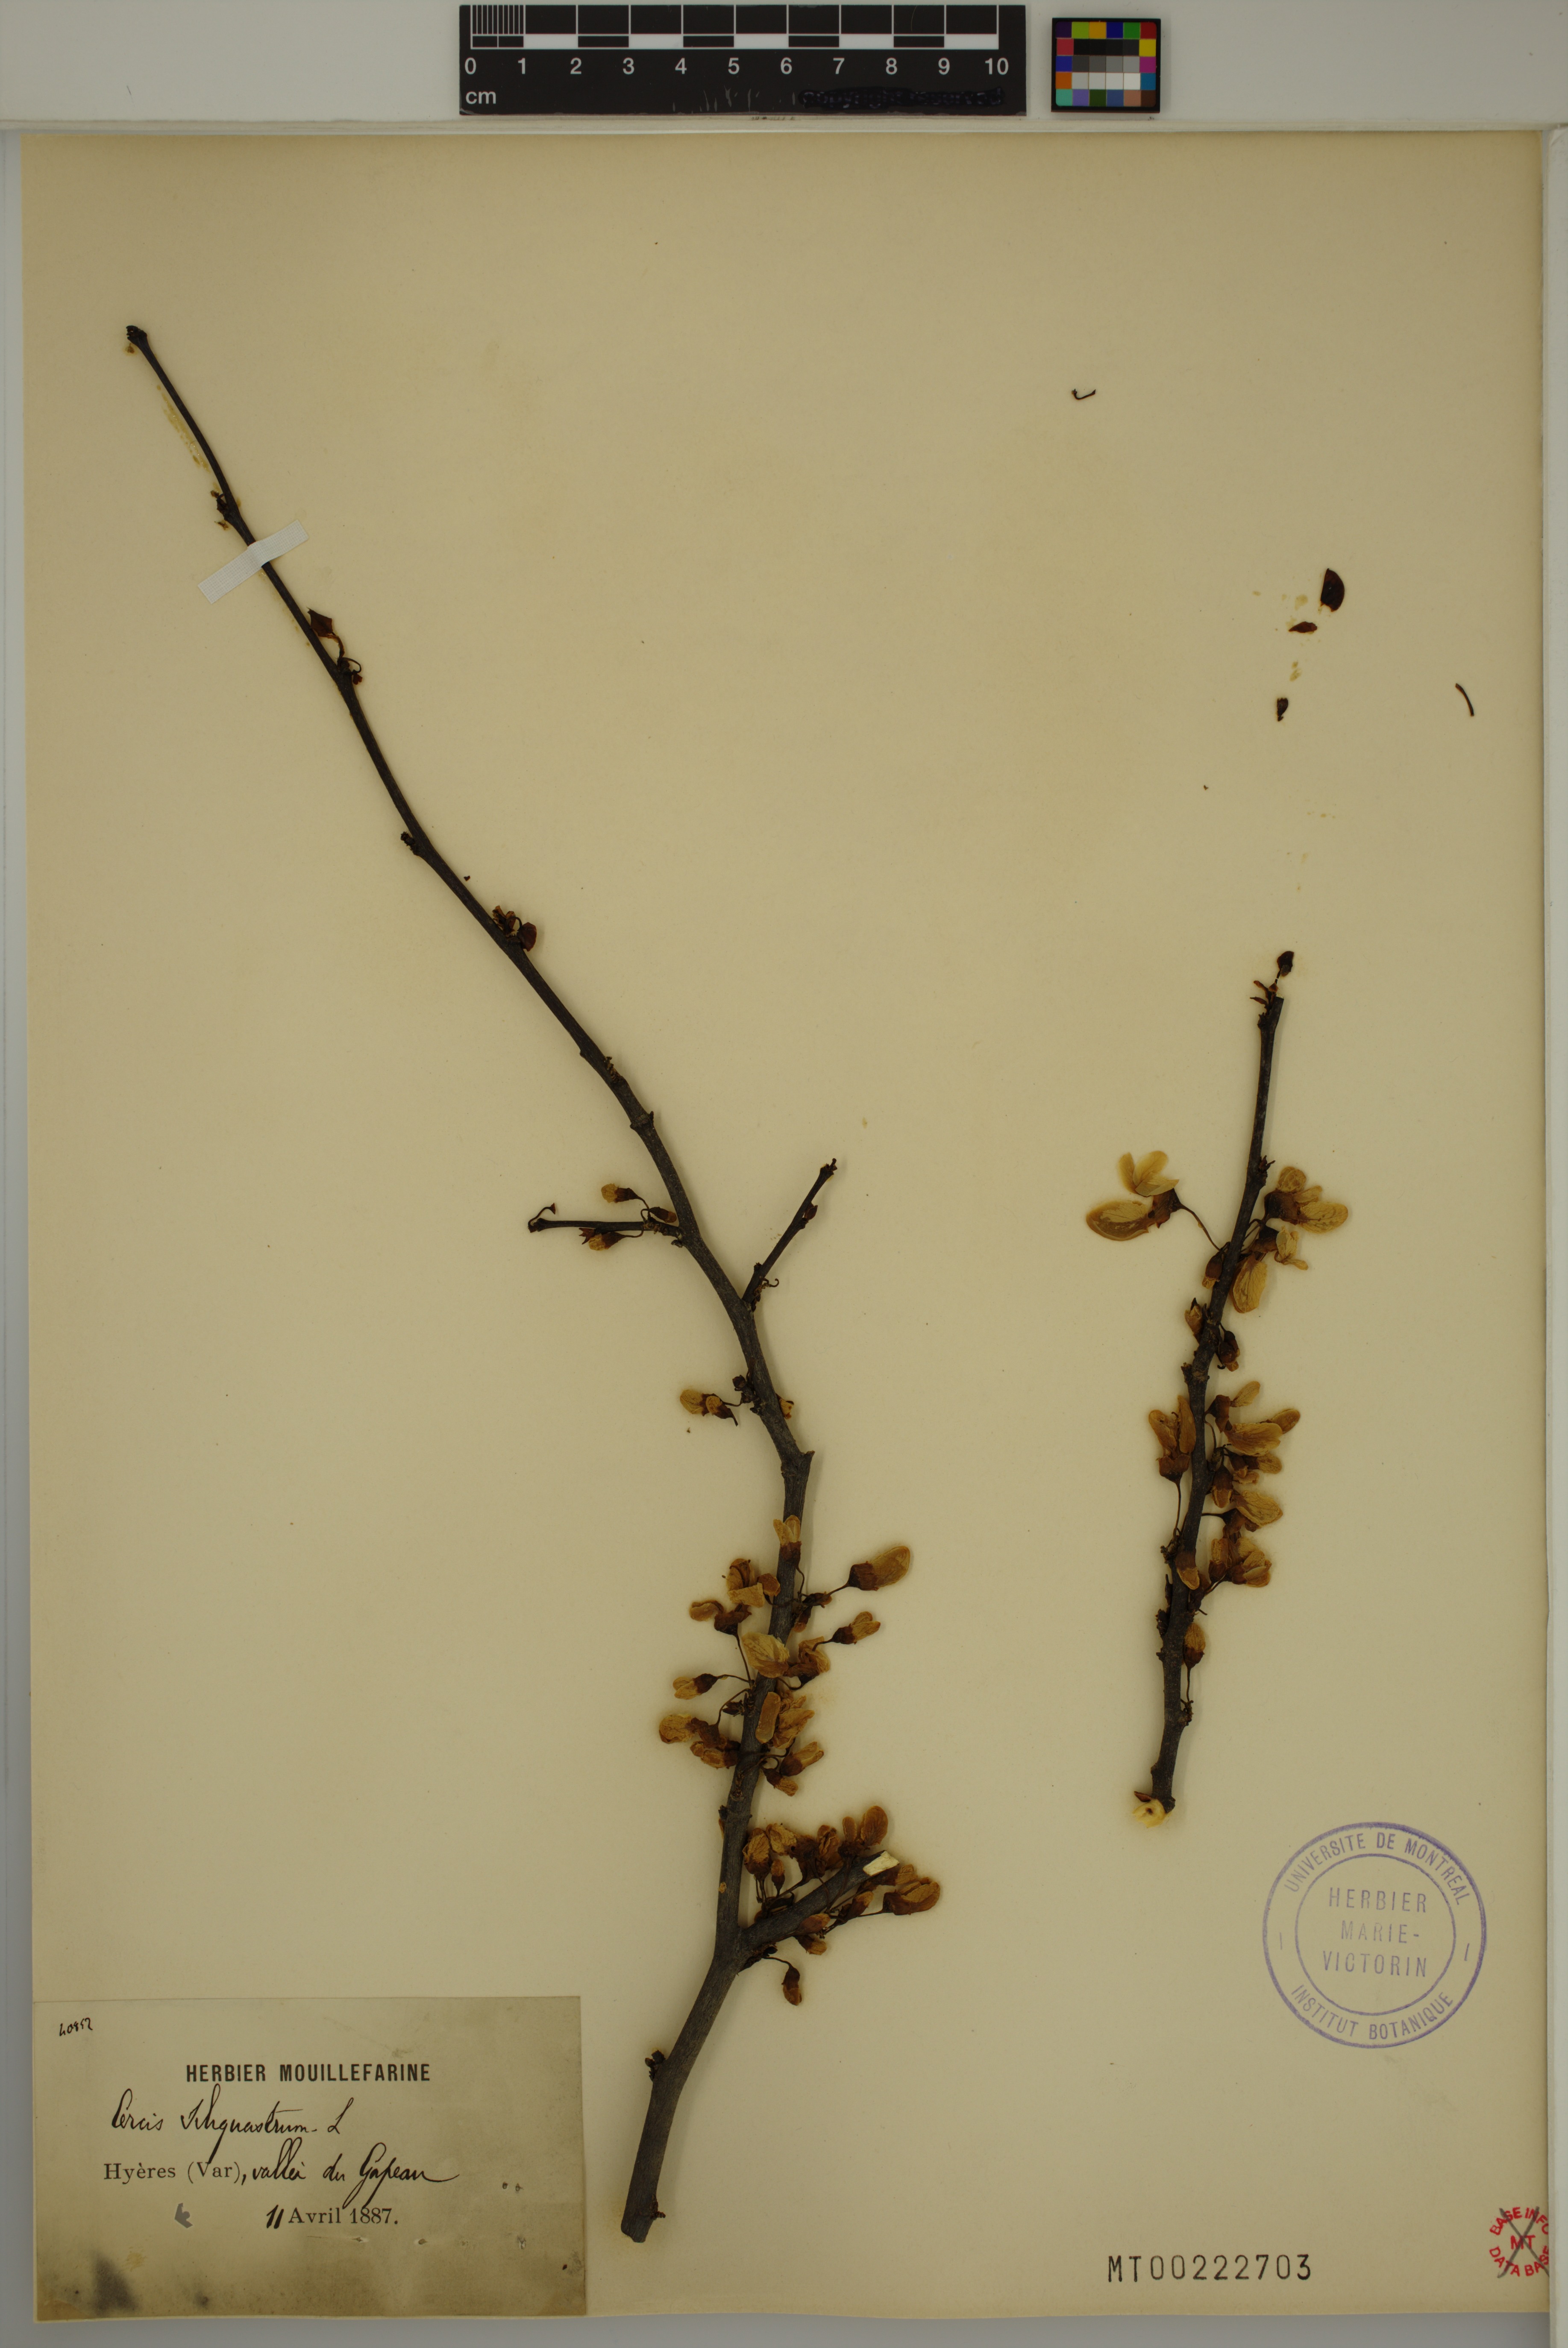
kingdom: Plantae
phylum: Tracheophyta
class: Magnoliopsida
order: Fabales
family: Fabaceae
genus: Cercis
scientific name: Cercis siliquastrum
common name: Judas tree
